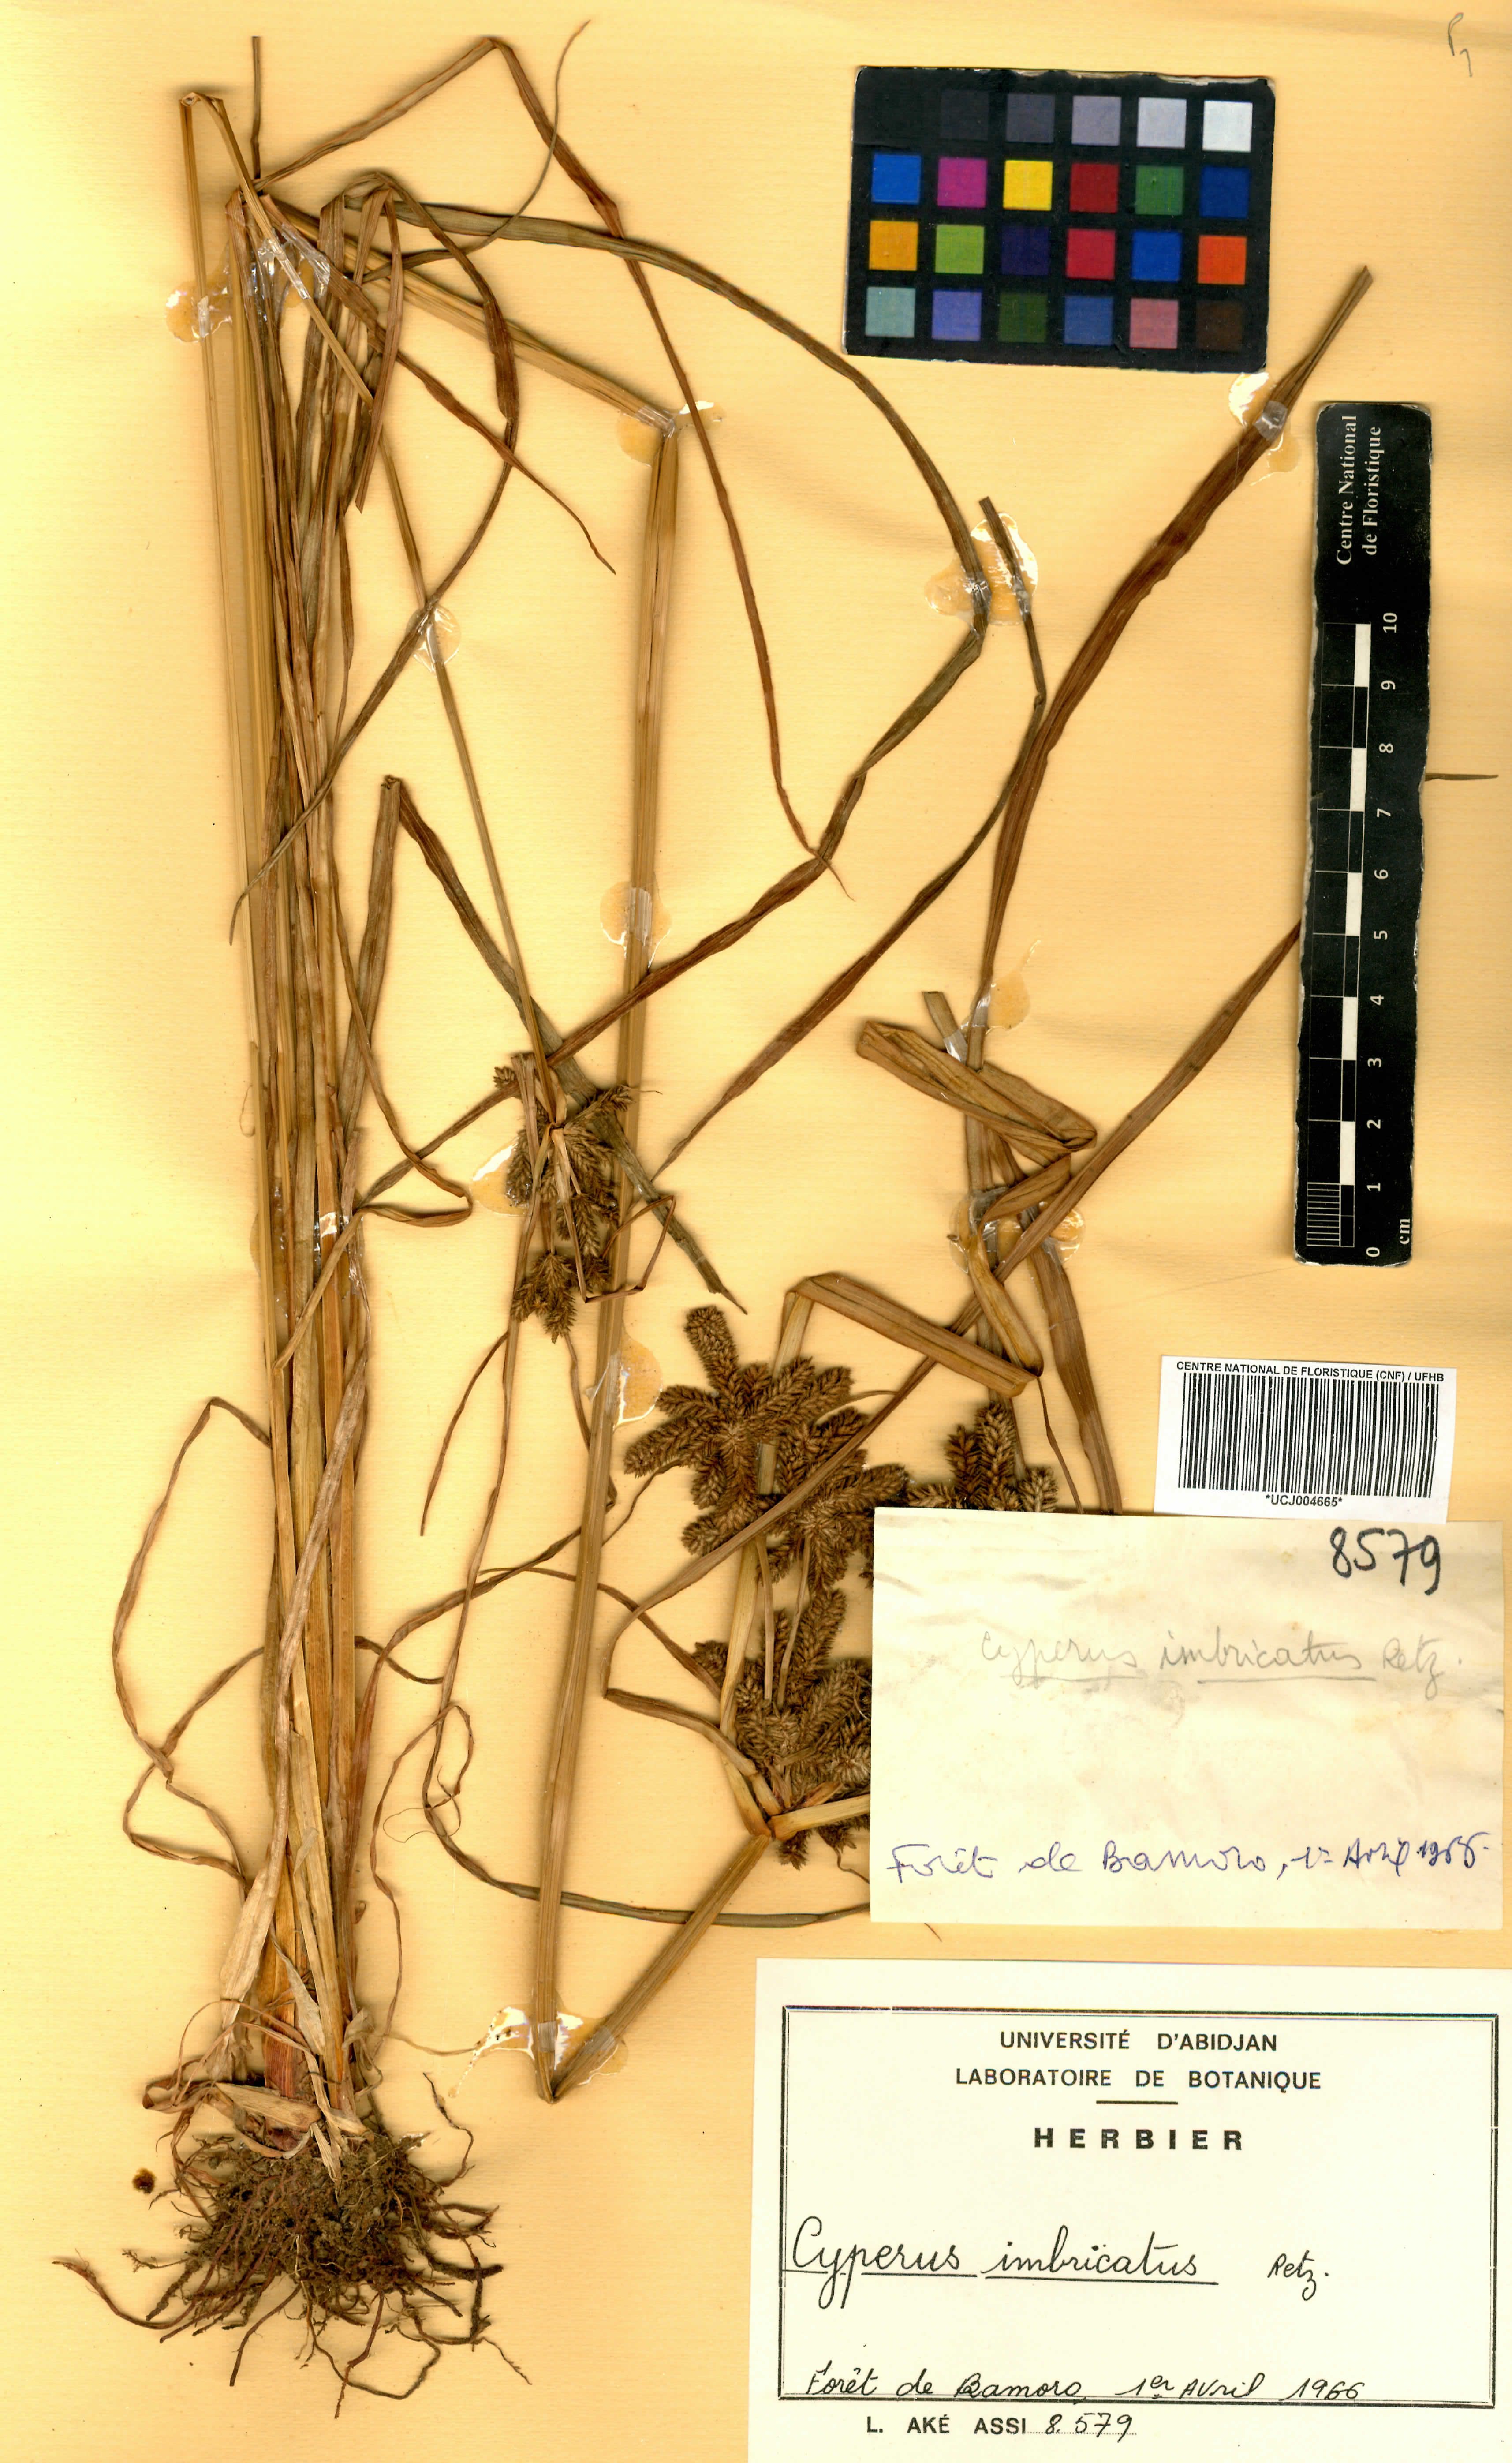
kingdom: Plantae
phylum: Tracheophyta
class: Liliopsida
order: Poales
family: Cyperaceae
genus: Cyperus
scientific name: Cyperus imbricatus
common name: Shingle flatsedge
